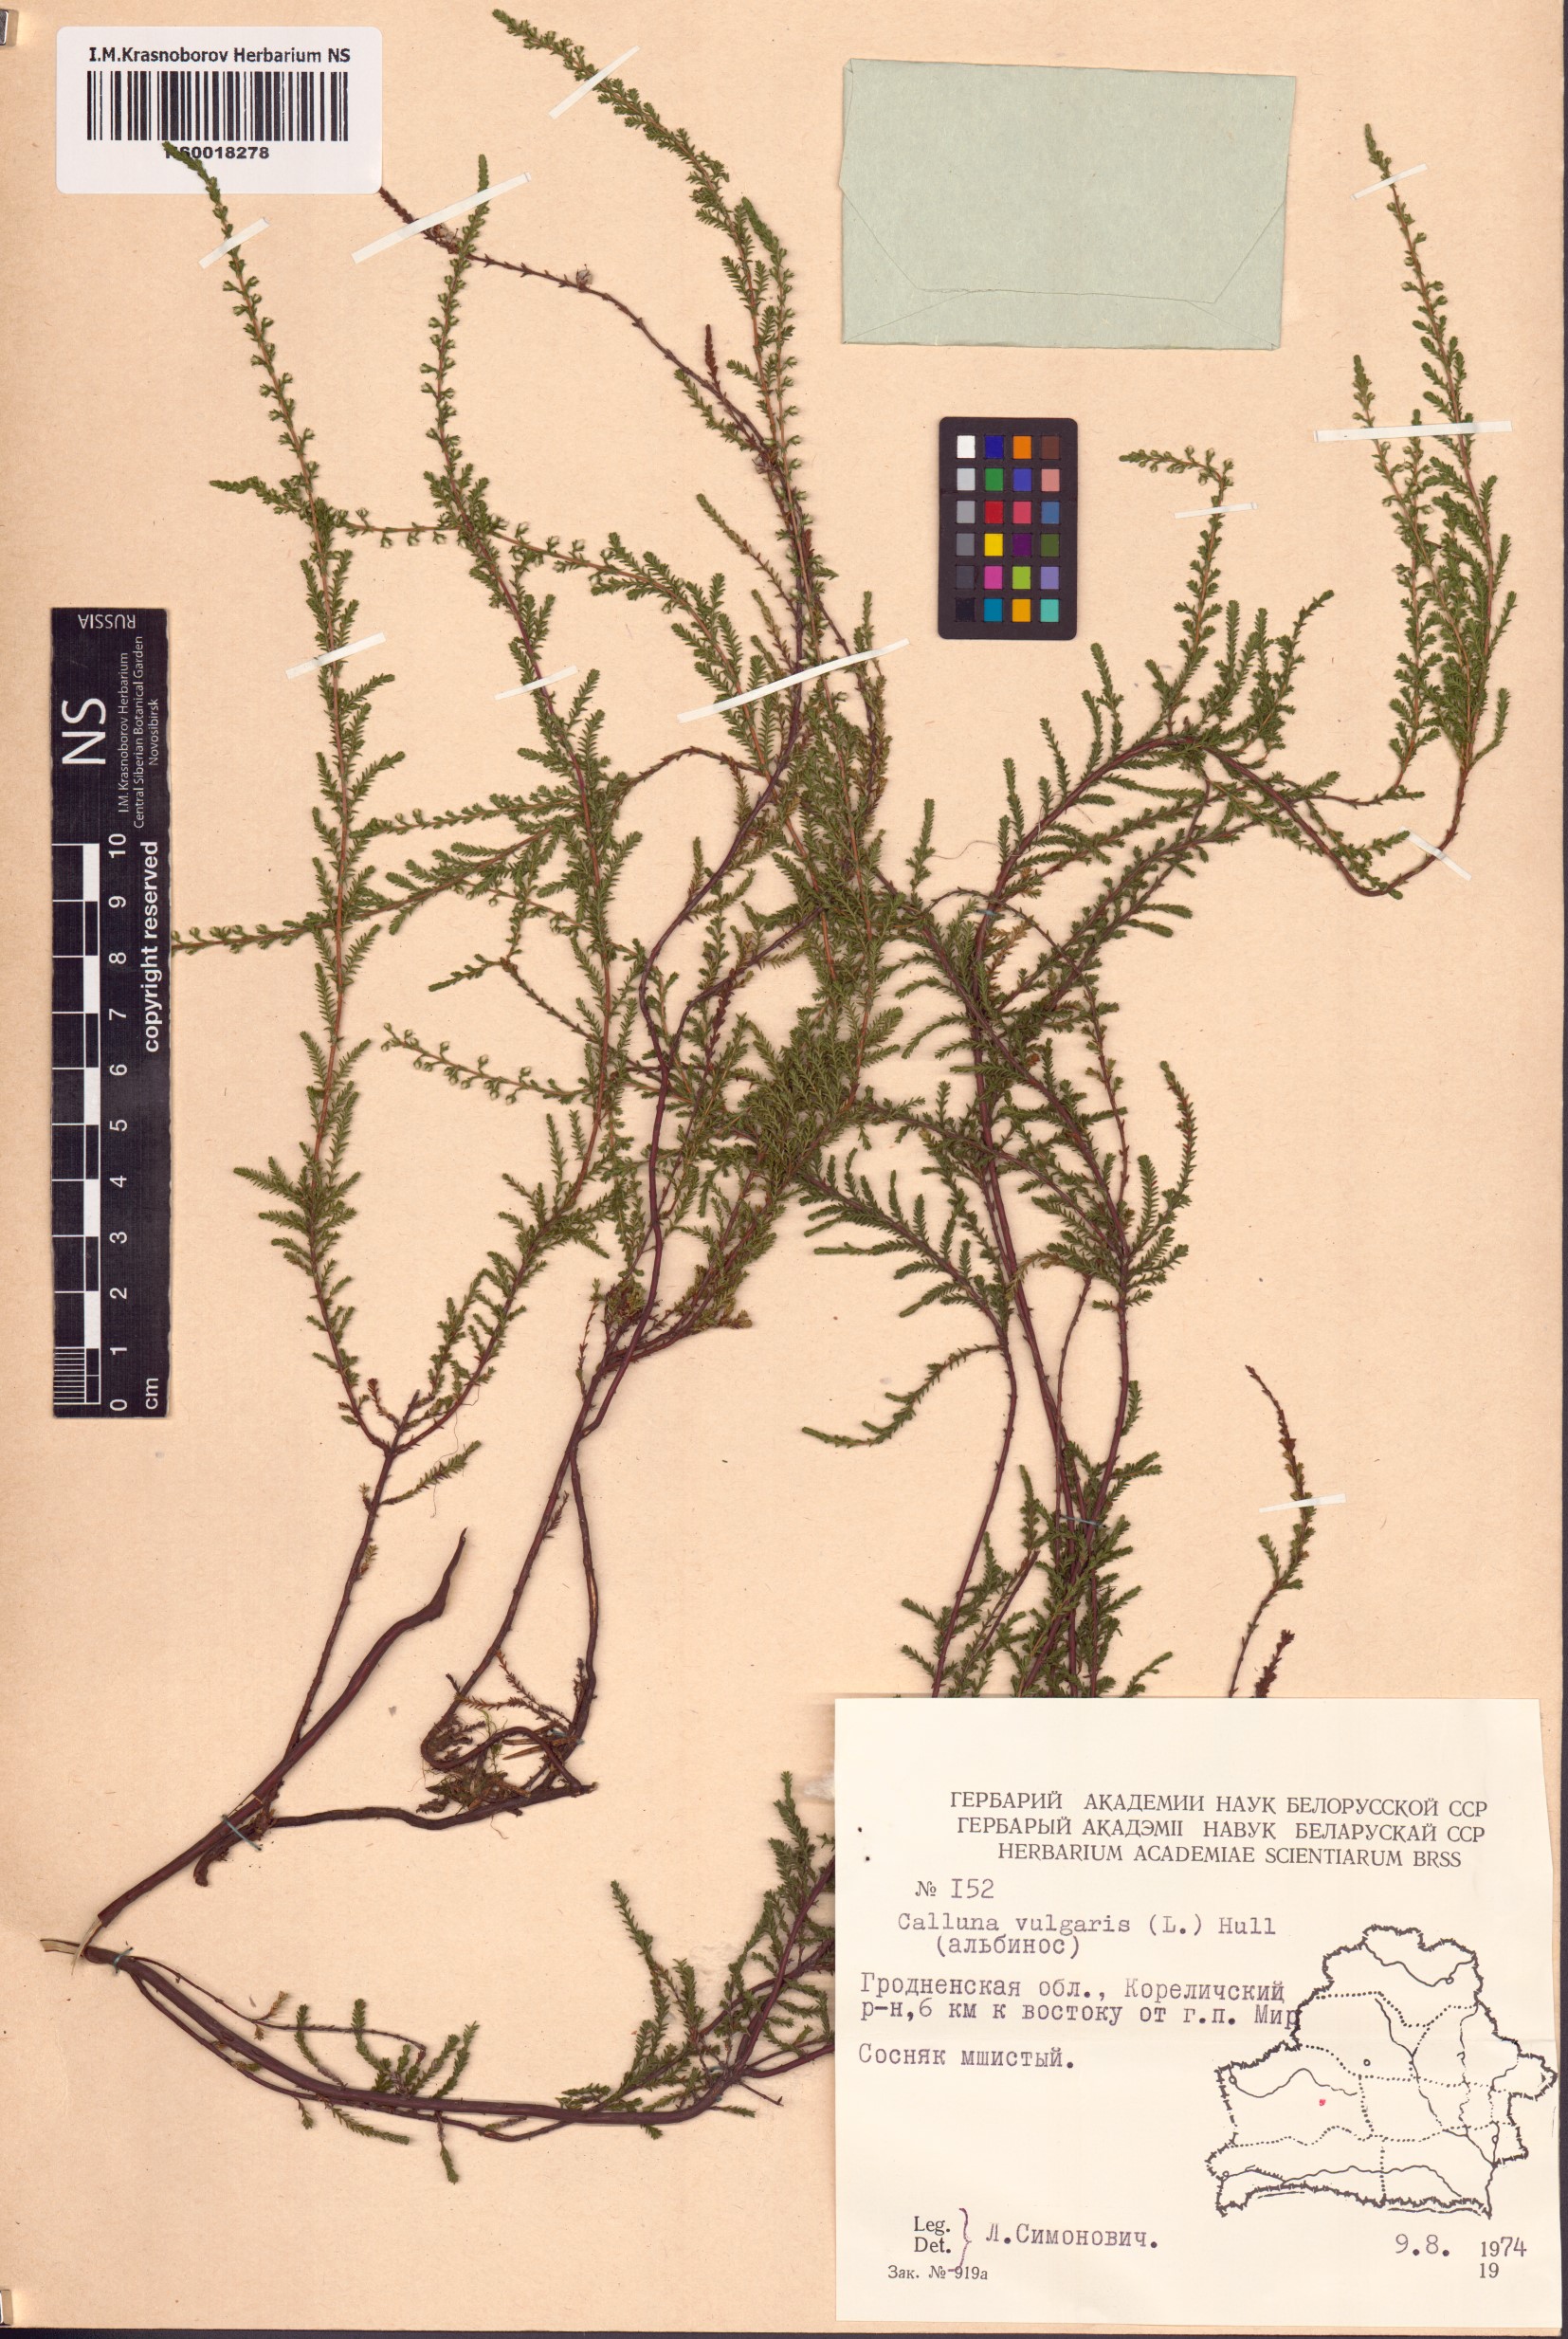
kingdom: Plantae
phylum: Tracheophyta
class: Magnoliopsida
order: Ericales
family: Ericaceae
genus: Calluna
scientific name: Calluna vulgaris
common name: Heather
